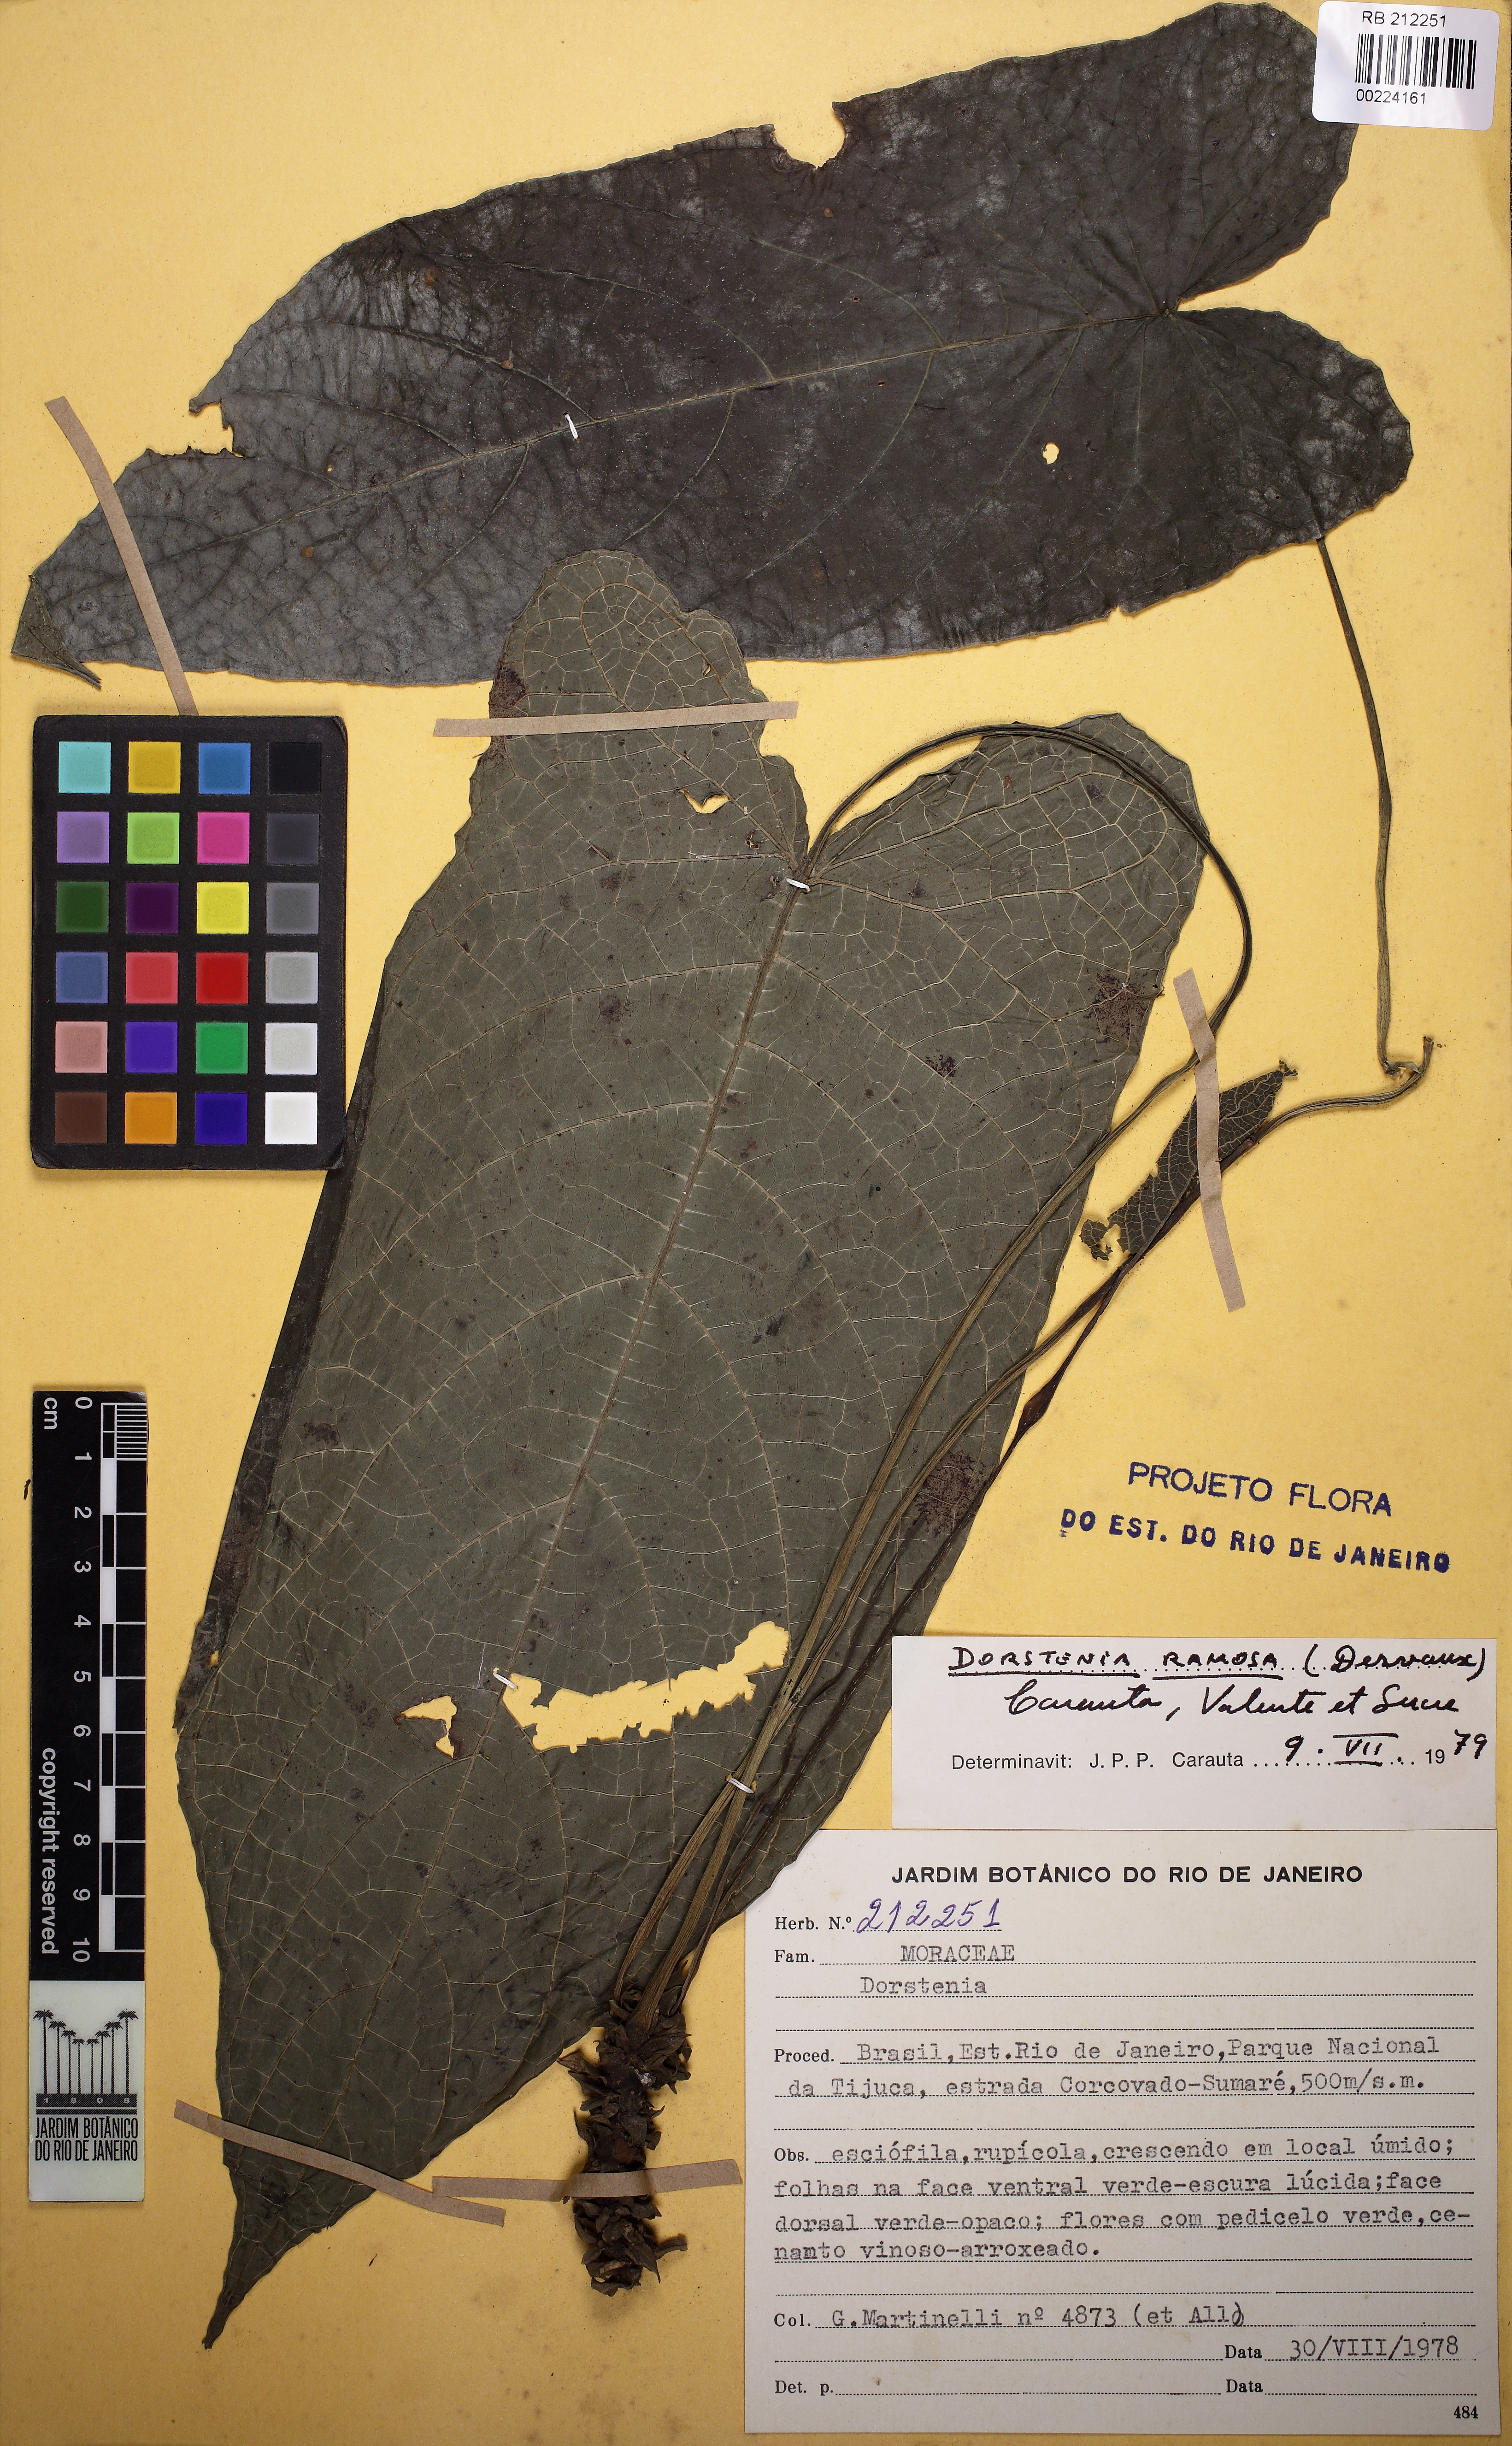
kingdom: Plantae
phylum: Tracheophyta
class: Magnoliopsida
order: Rosales
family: Moraceae
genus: Dorstenia
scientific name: Dorstenia ramosa
